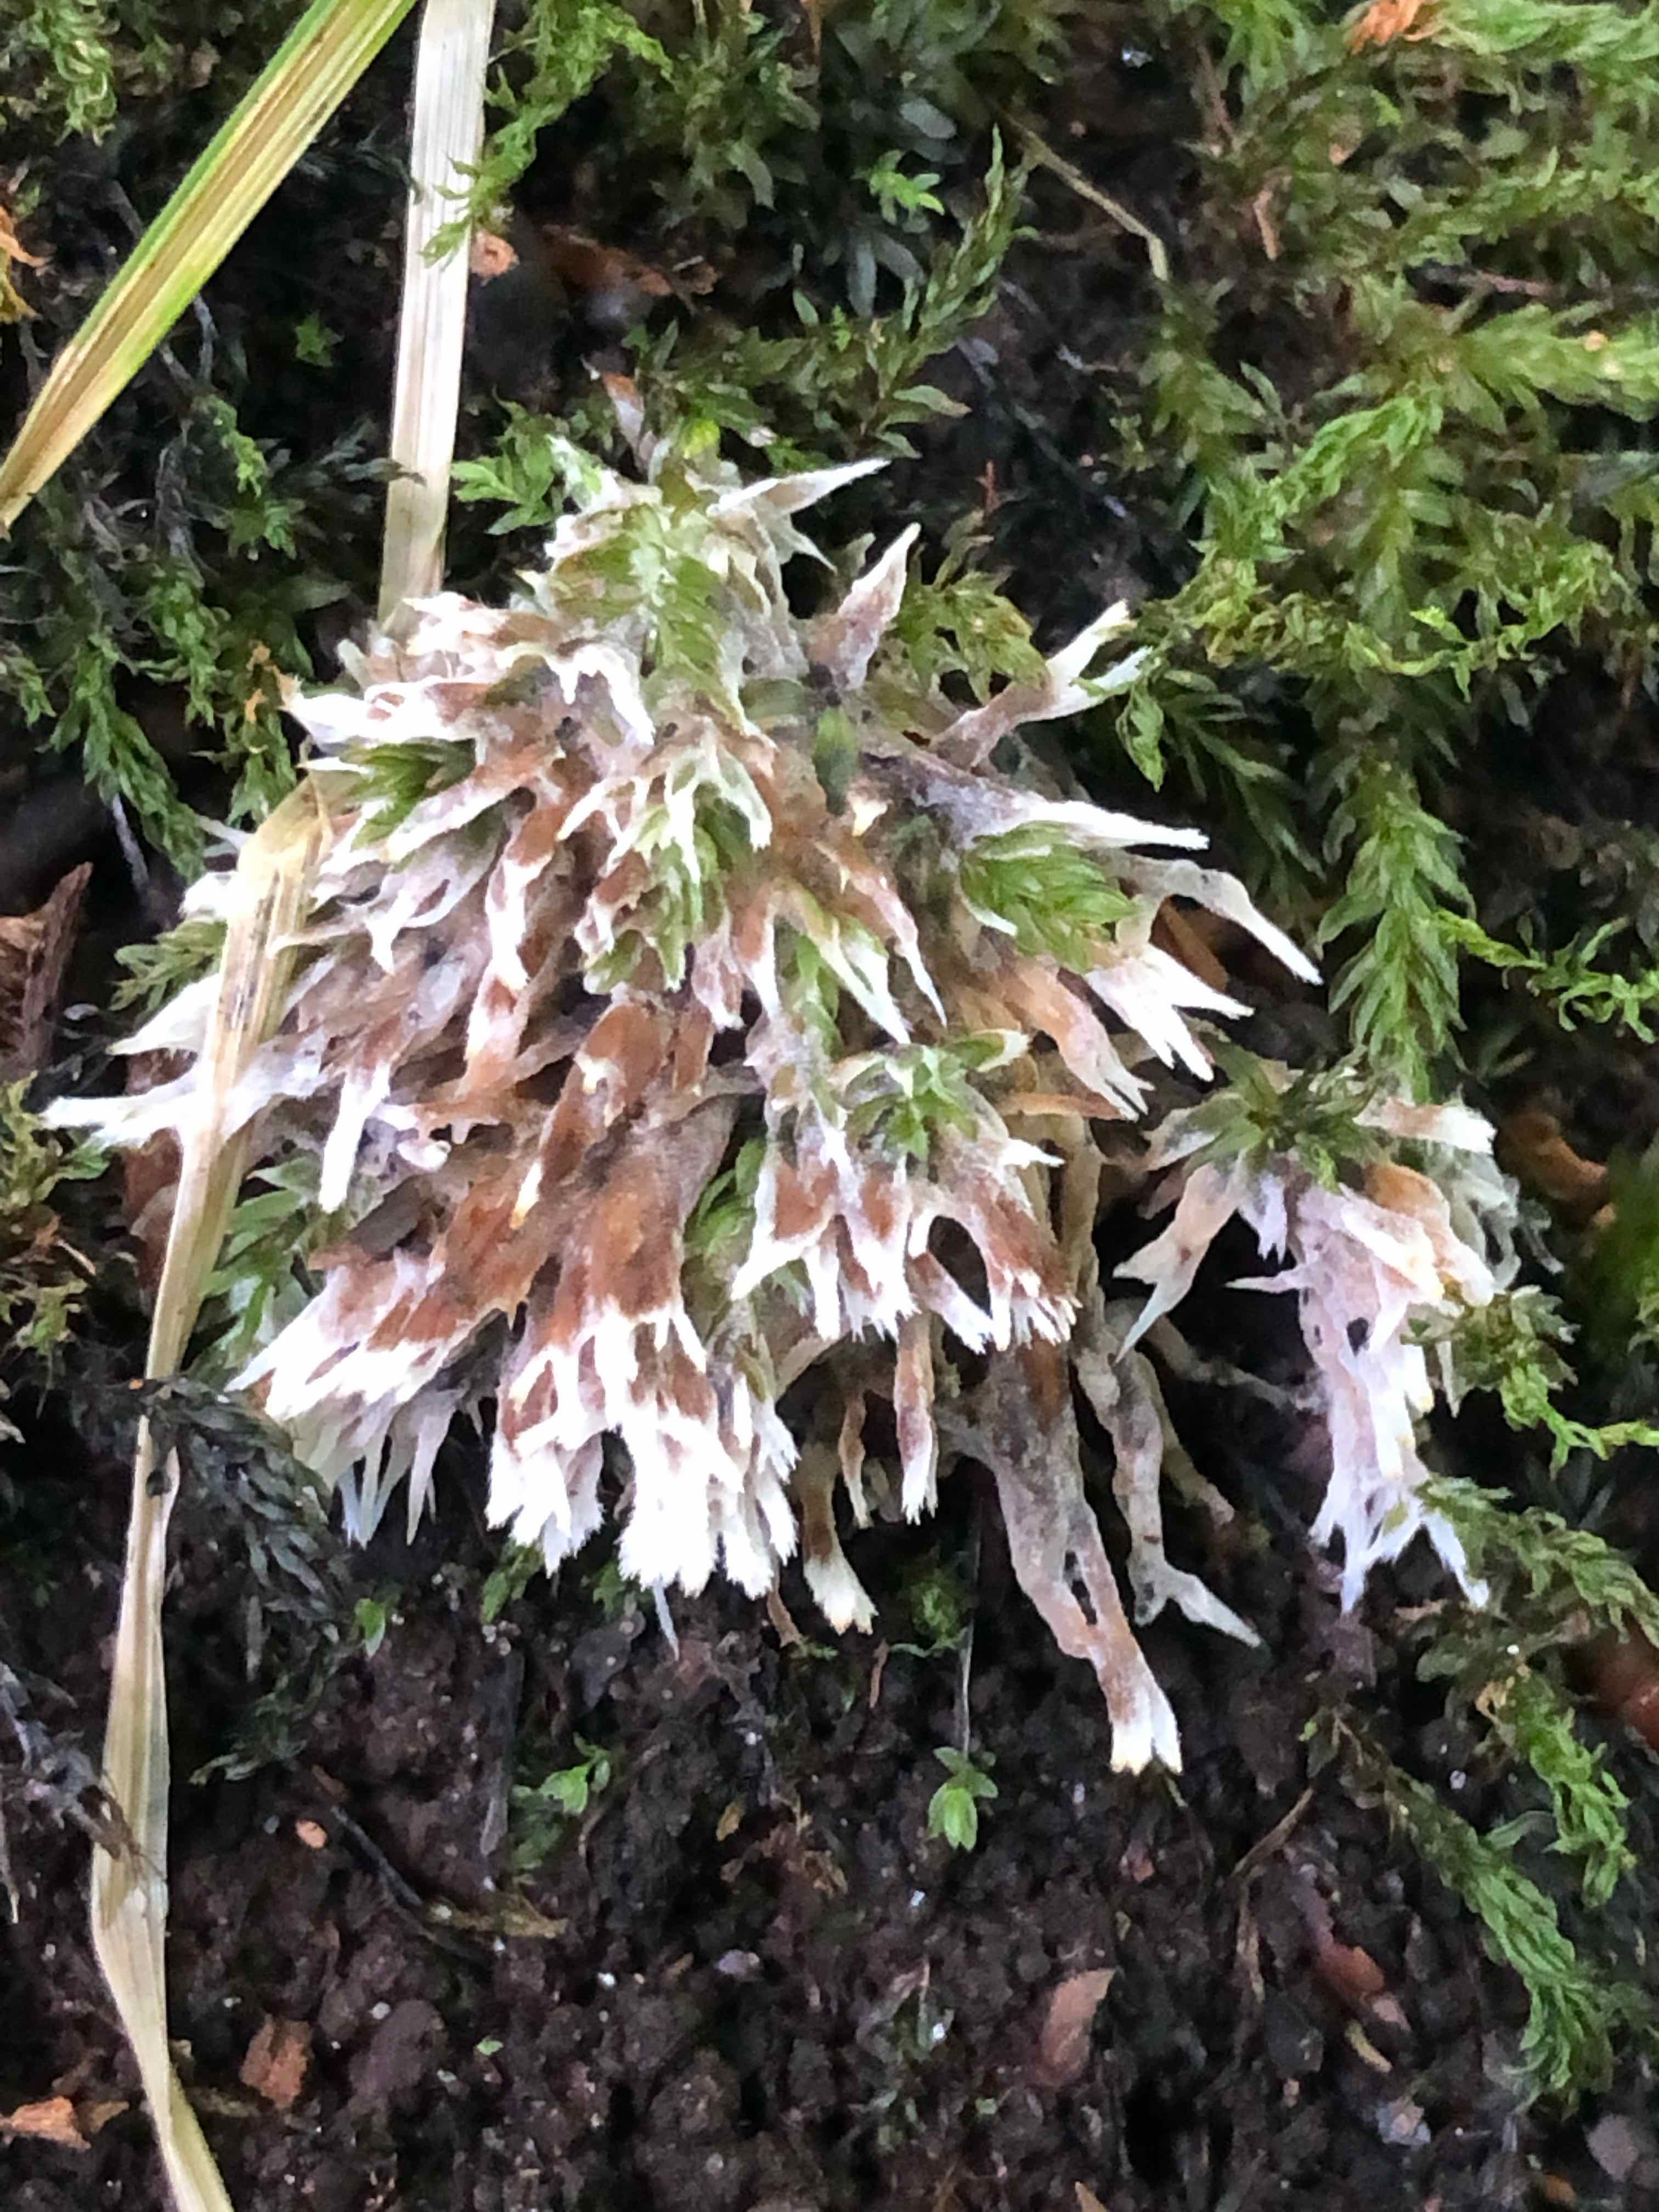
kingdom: Fungi
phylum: Basidiomycota
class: Agaricomycetes
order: Thelephorales
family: Thelephoraceae
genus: Thelephora
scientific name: Thelephora penicillata
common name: fladtrådt frynsesvamp
